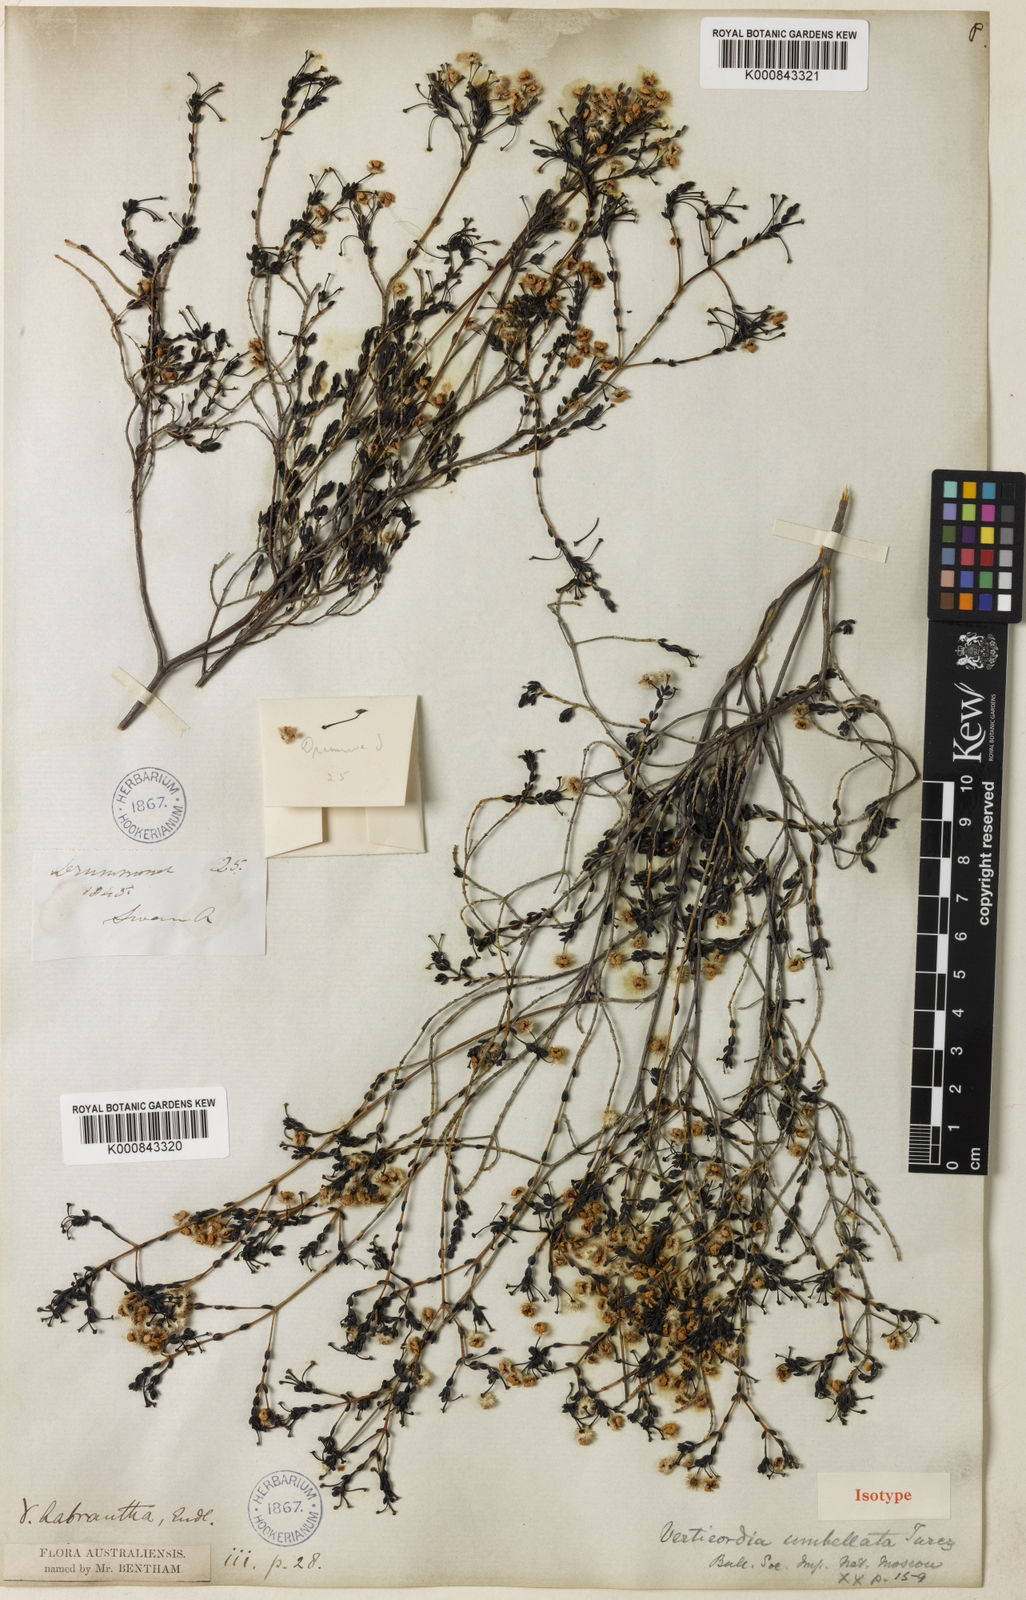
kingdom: Plantae
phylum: Tracheophyta
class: Magnoliopsida
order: Myrtales
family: Myrtaceae
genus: Verticordia
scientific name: Verticordia habrantha
